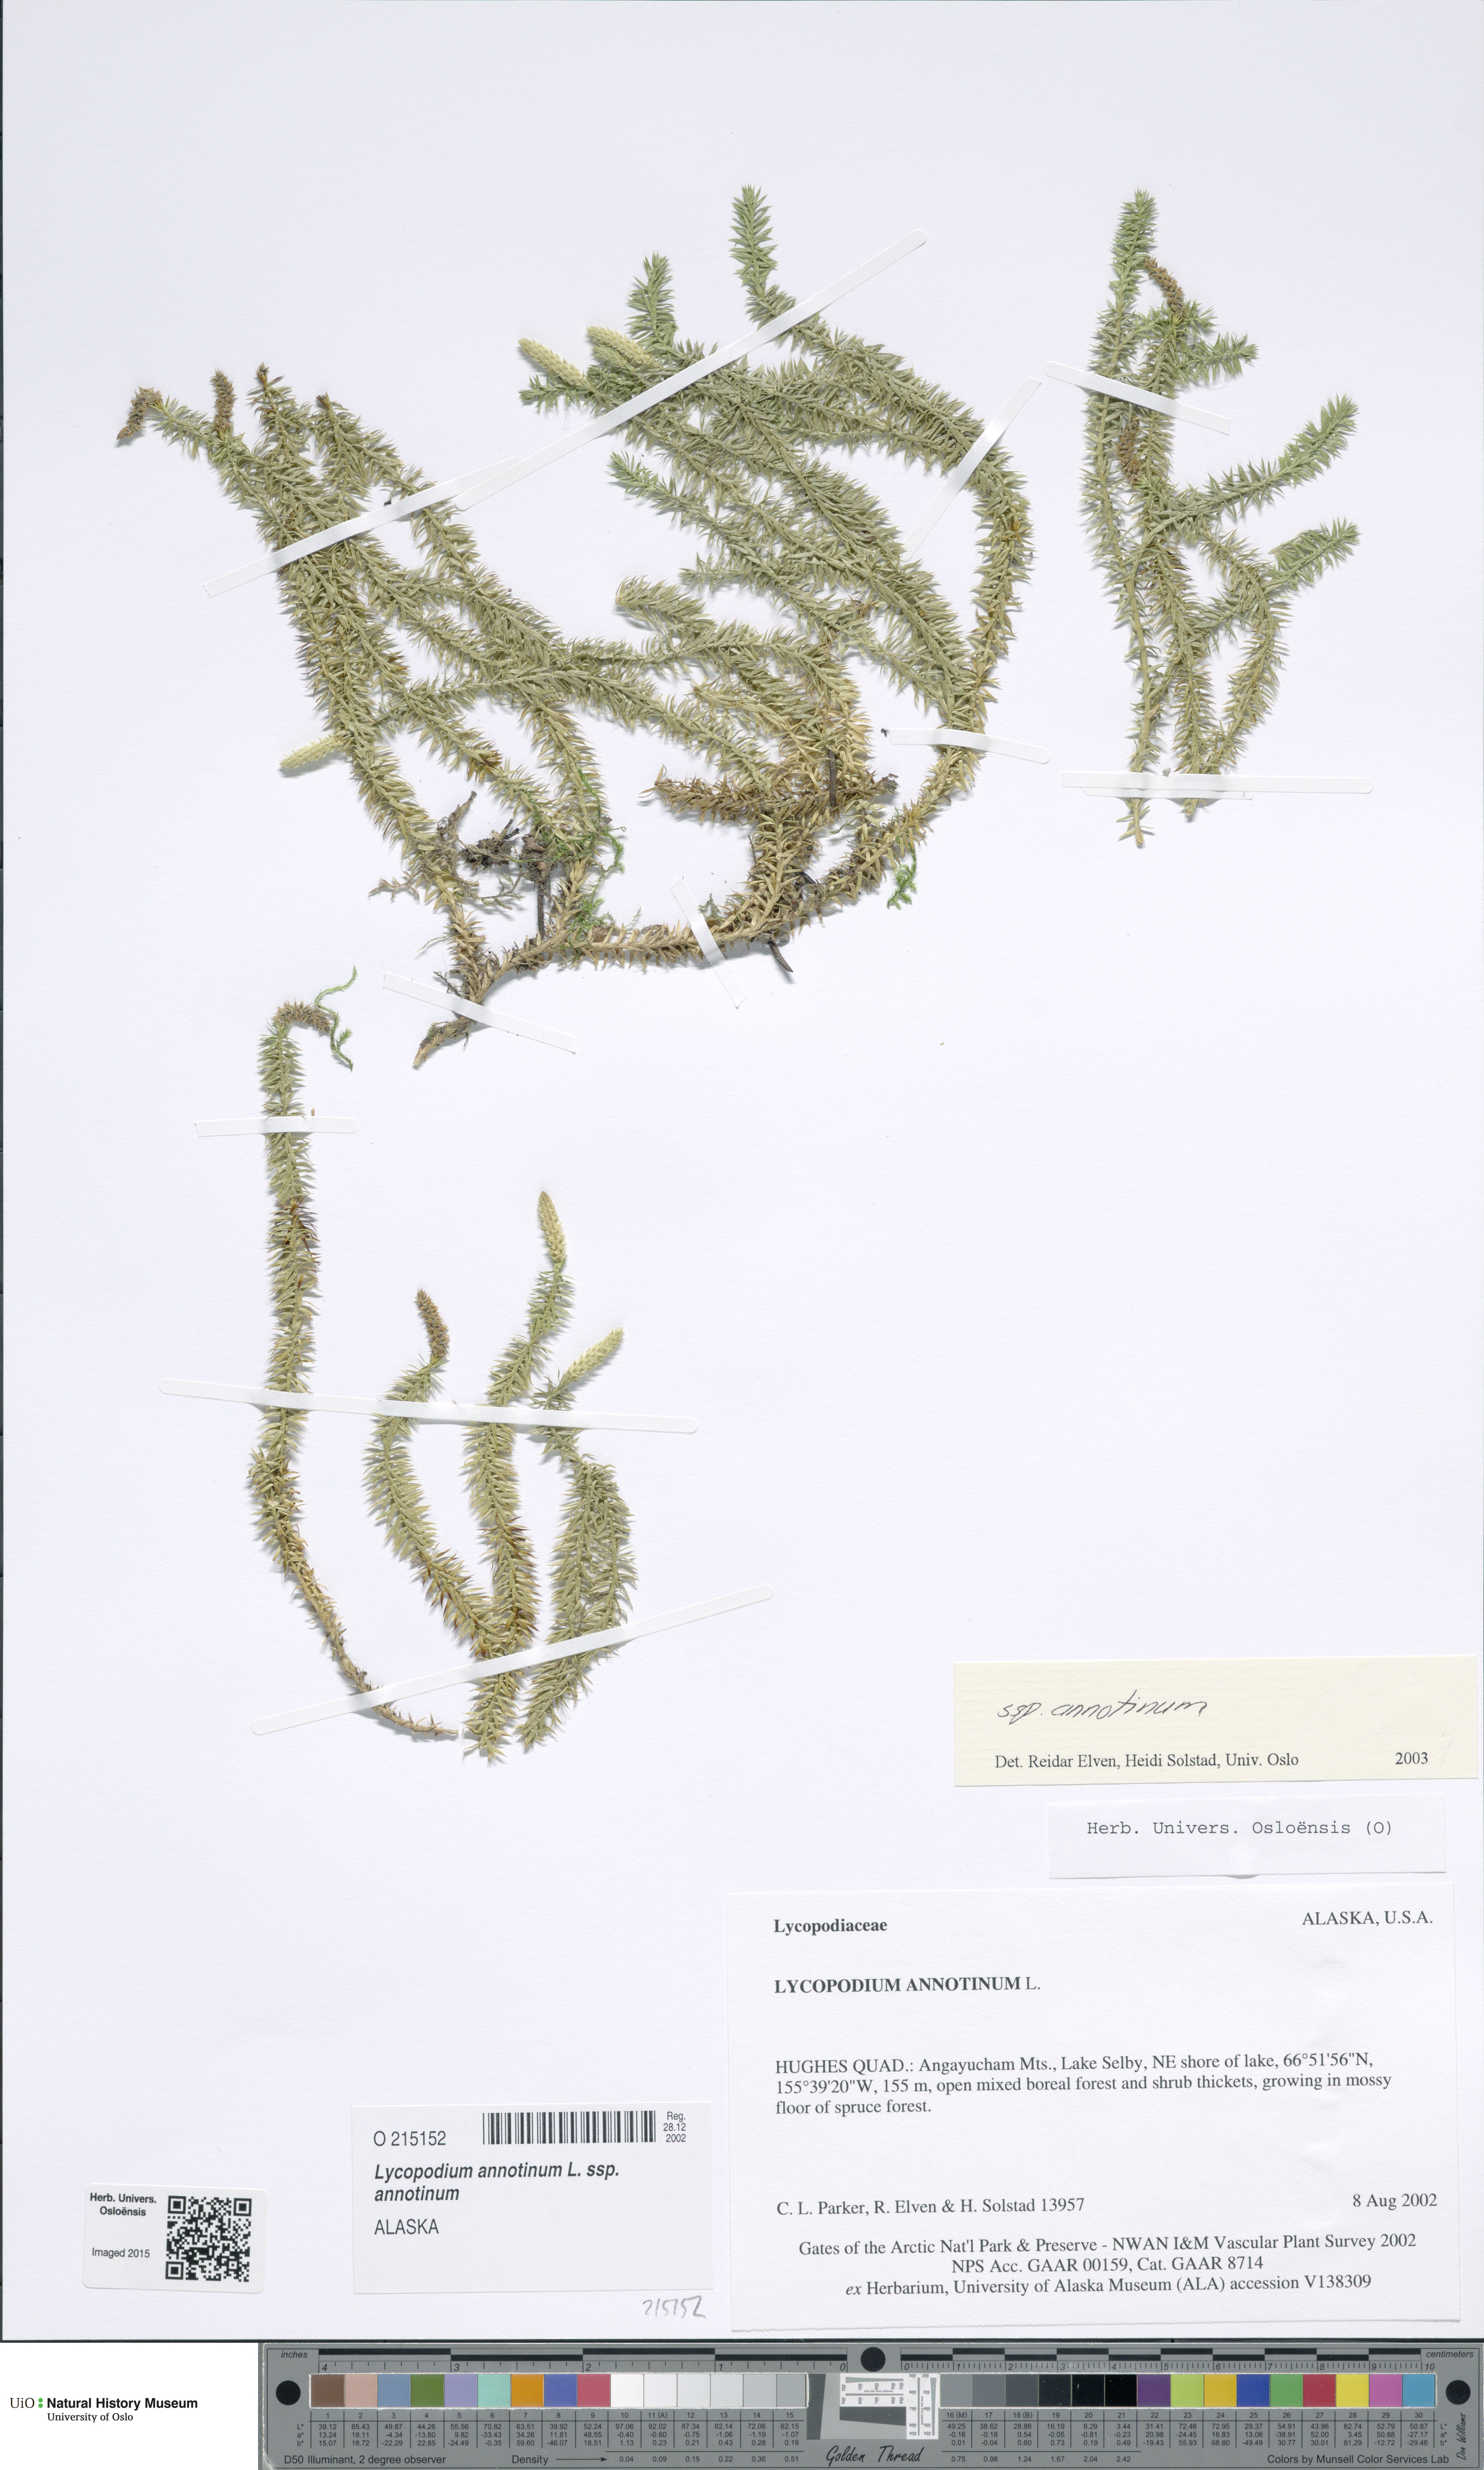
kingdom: Plantae
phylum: Tracheophyta
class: Lycopodiopsida
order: Lycopodiales
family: Lycopodiaceae
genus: Spinulum
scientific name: Spinulum annotinum
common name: Interrupted club-moss
